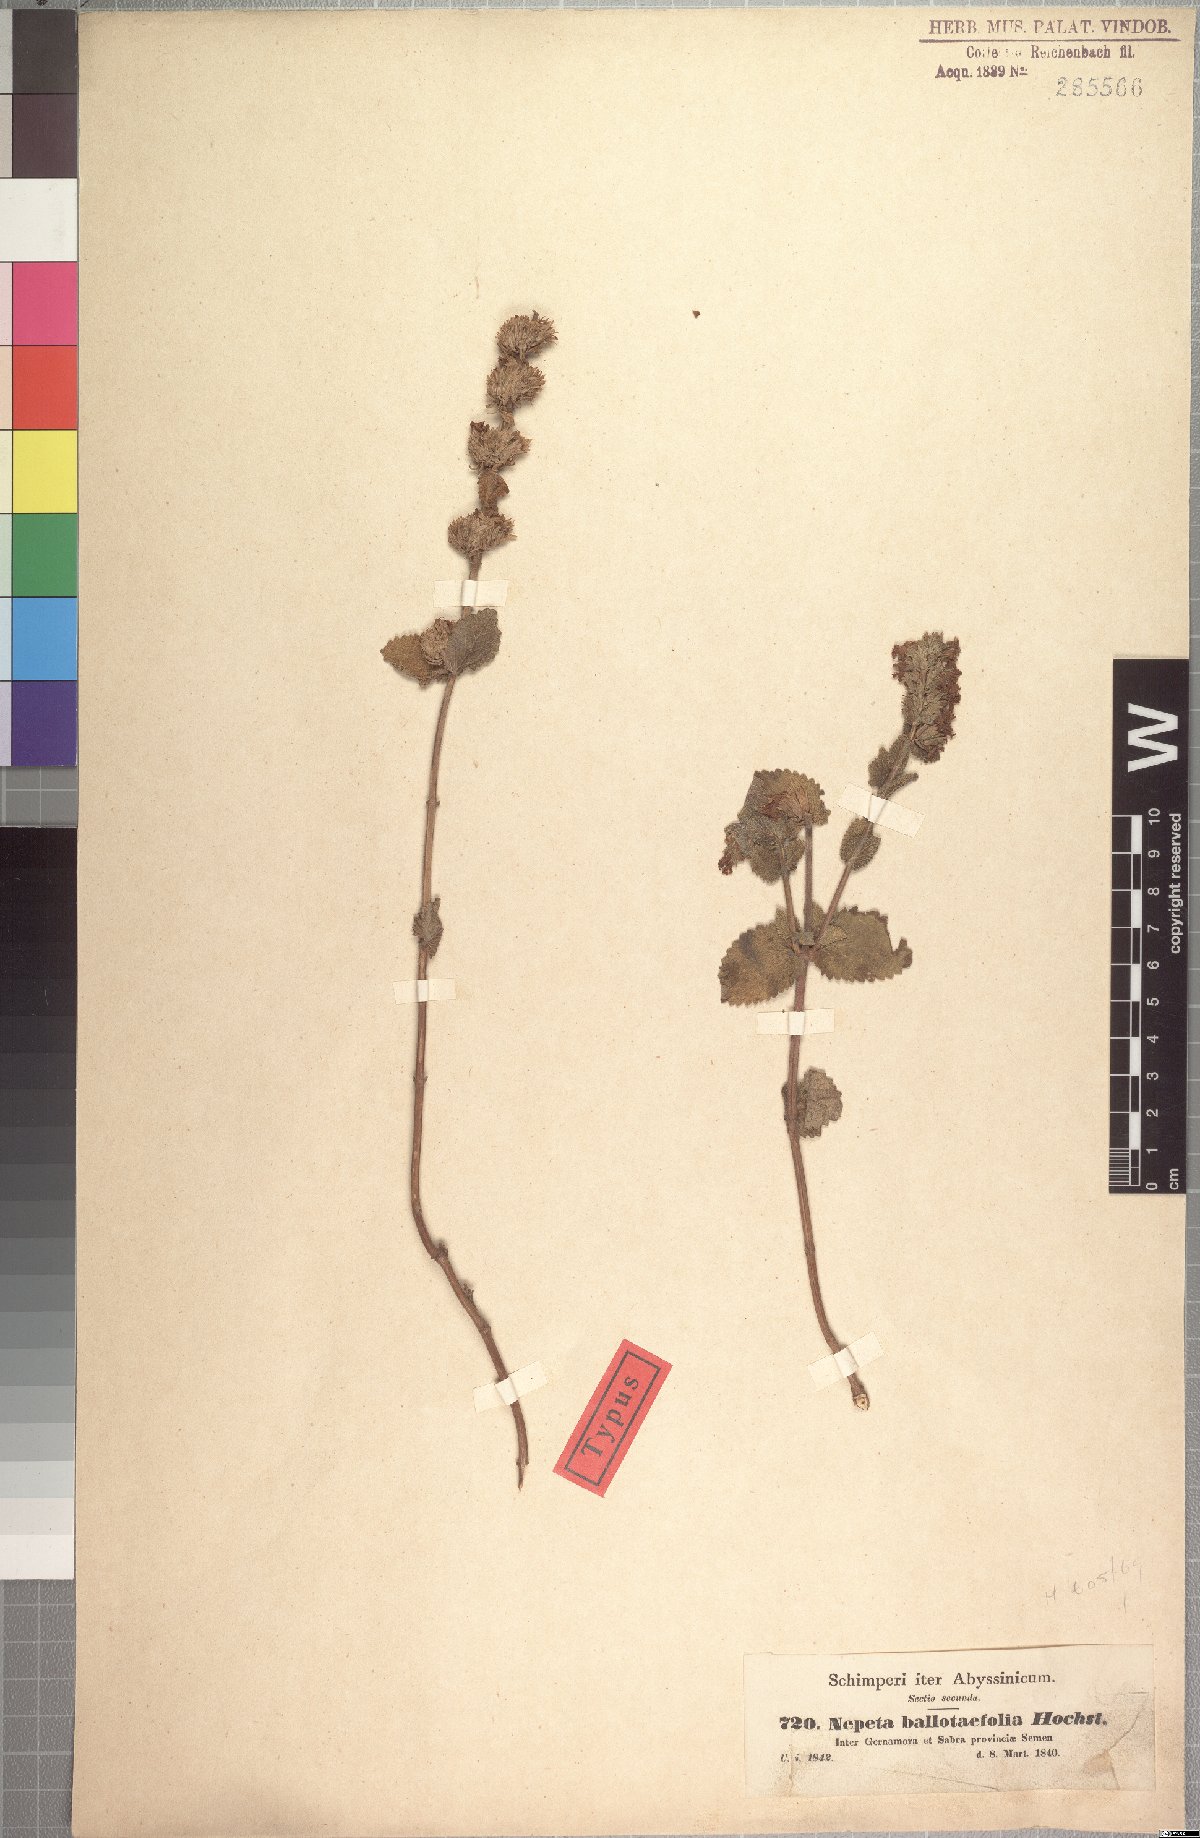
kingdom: Plantae
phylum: Tracheophyta
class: Magnoliopsida
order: Lamiales
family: Lamiaceae
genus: Nepeta
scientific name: Nepeta azurea
